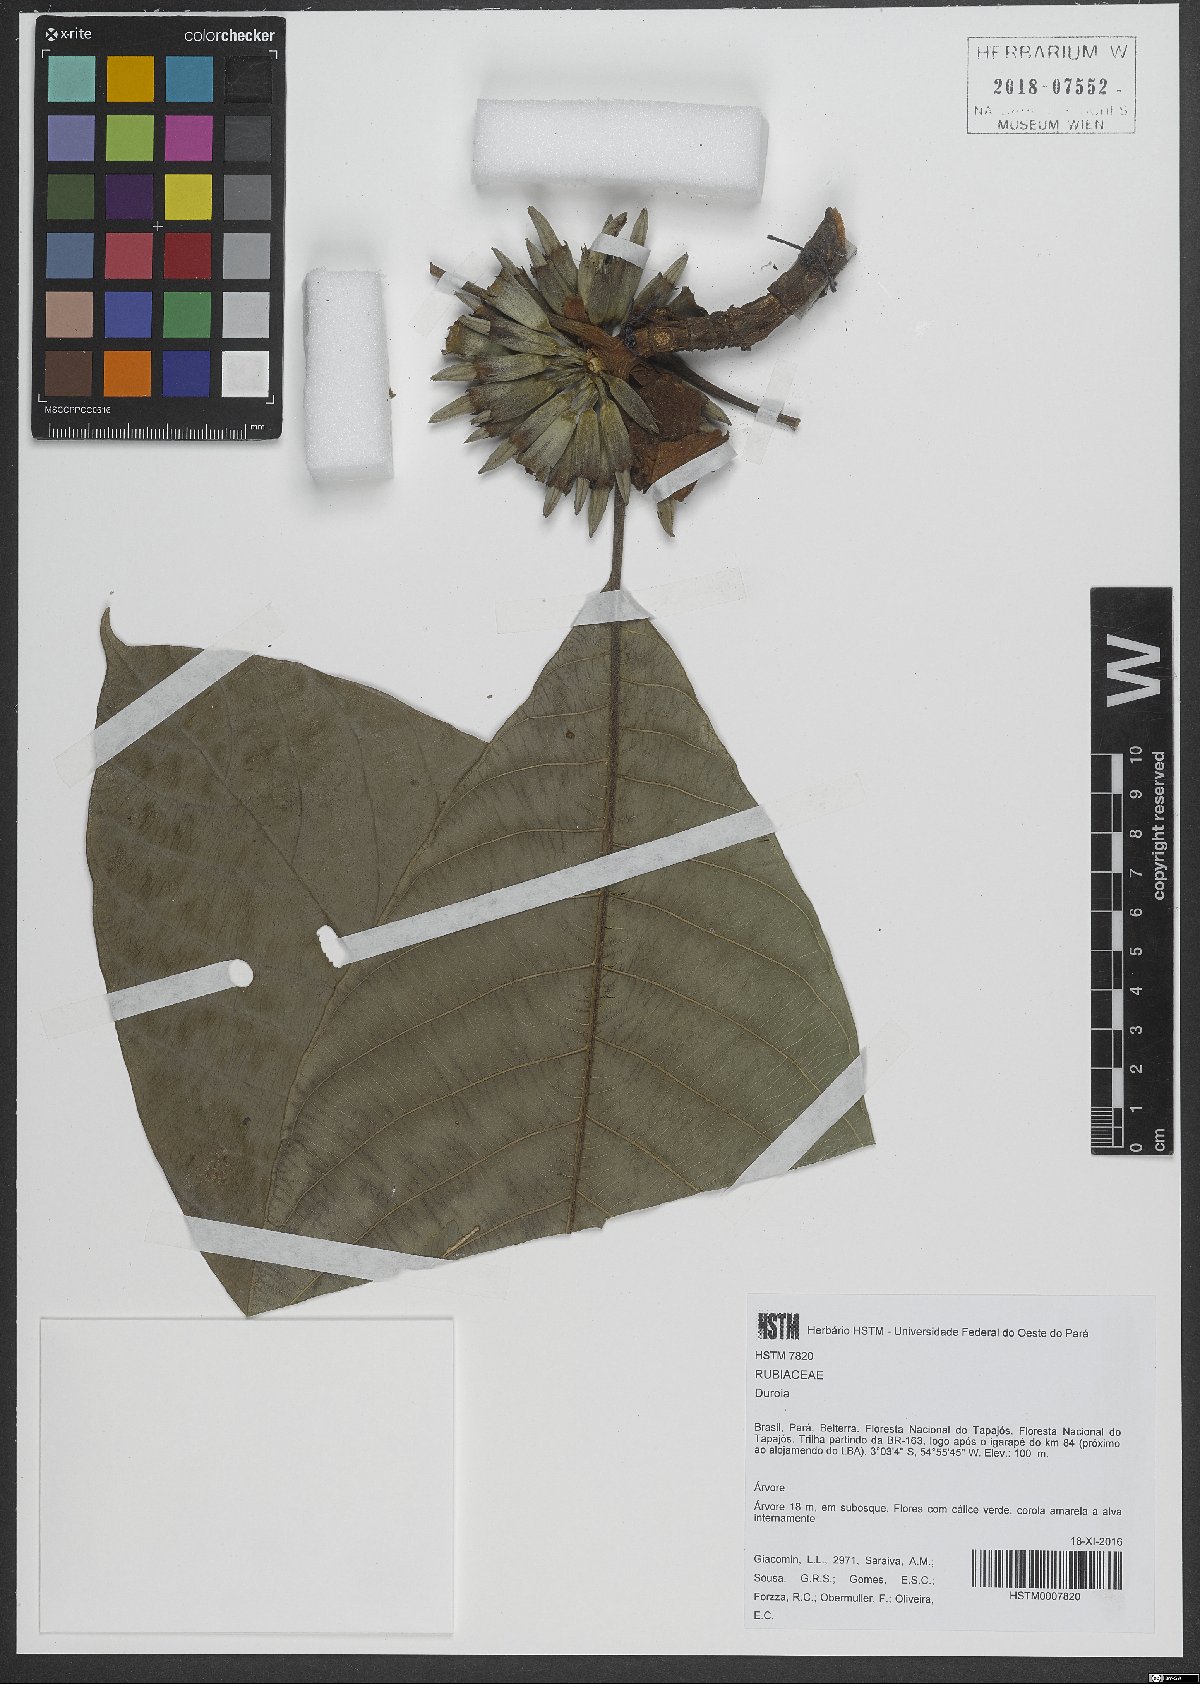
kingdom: Plantae
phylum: Tracheophyta
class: Magnoliopsida
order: Gentianales
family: Rubiaceae
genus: Duroia
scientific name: Duroia
